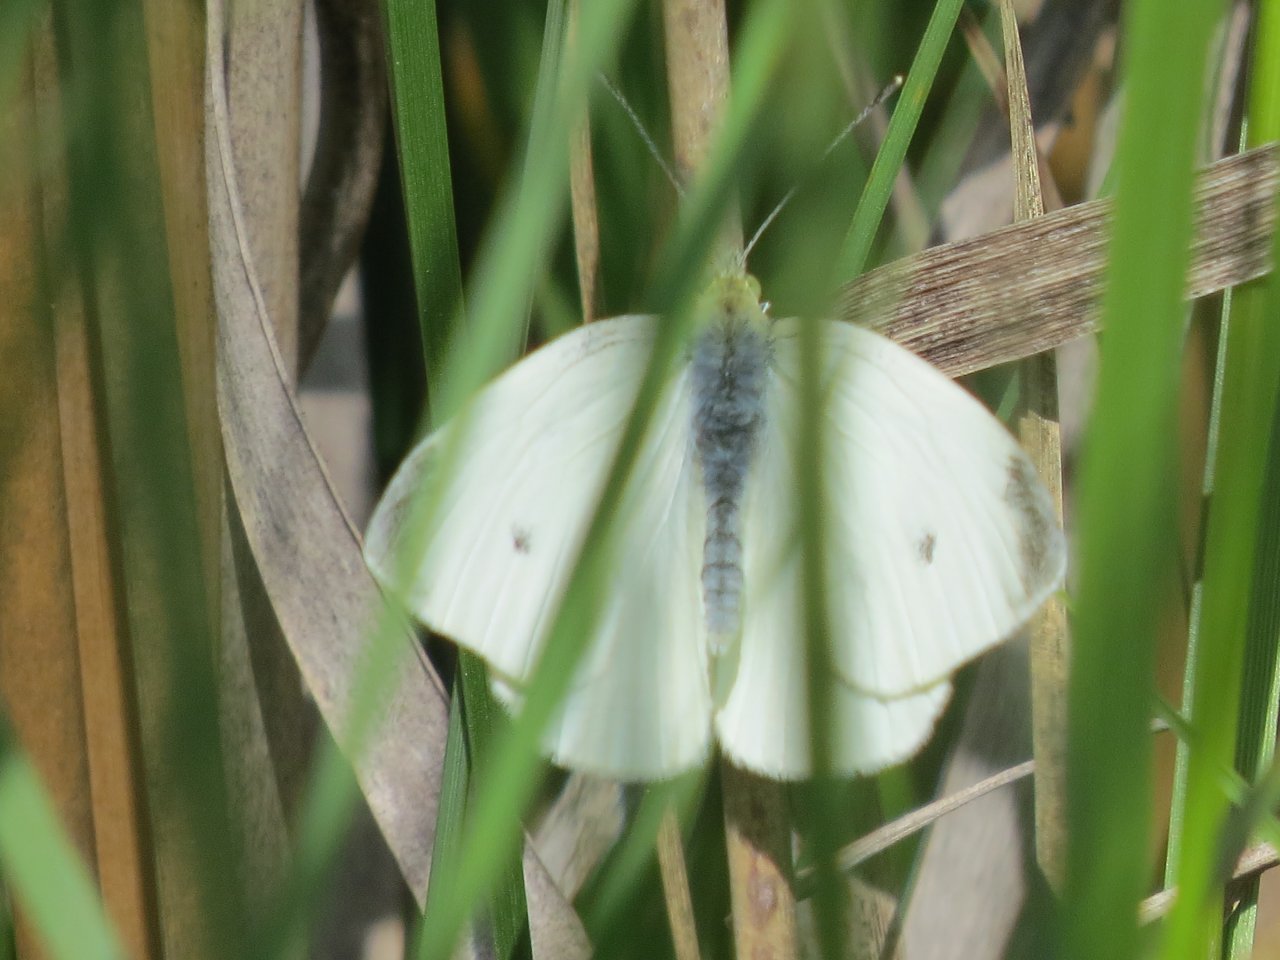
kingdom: Animalia
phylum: Arthropoda
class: Insecta
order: Lepidoptera
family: Pieridae
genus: Pieris
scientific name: Pieris rapae
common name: Cabbage White
